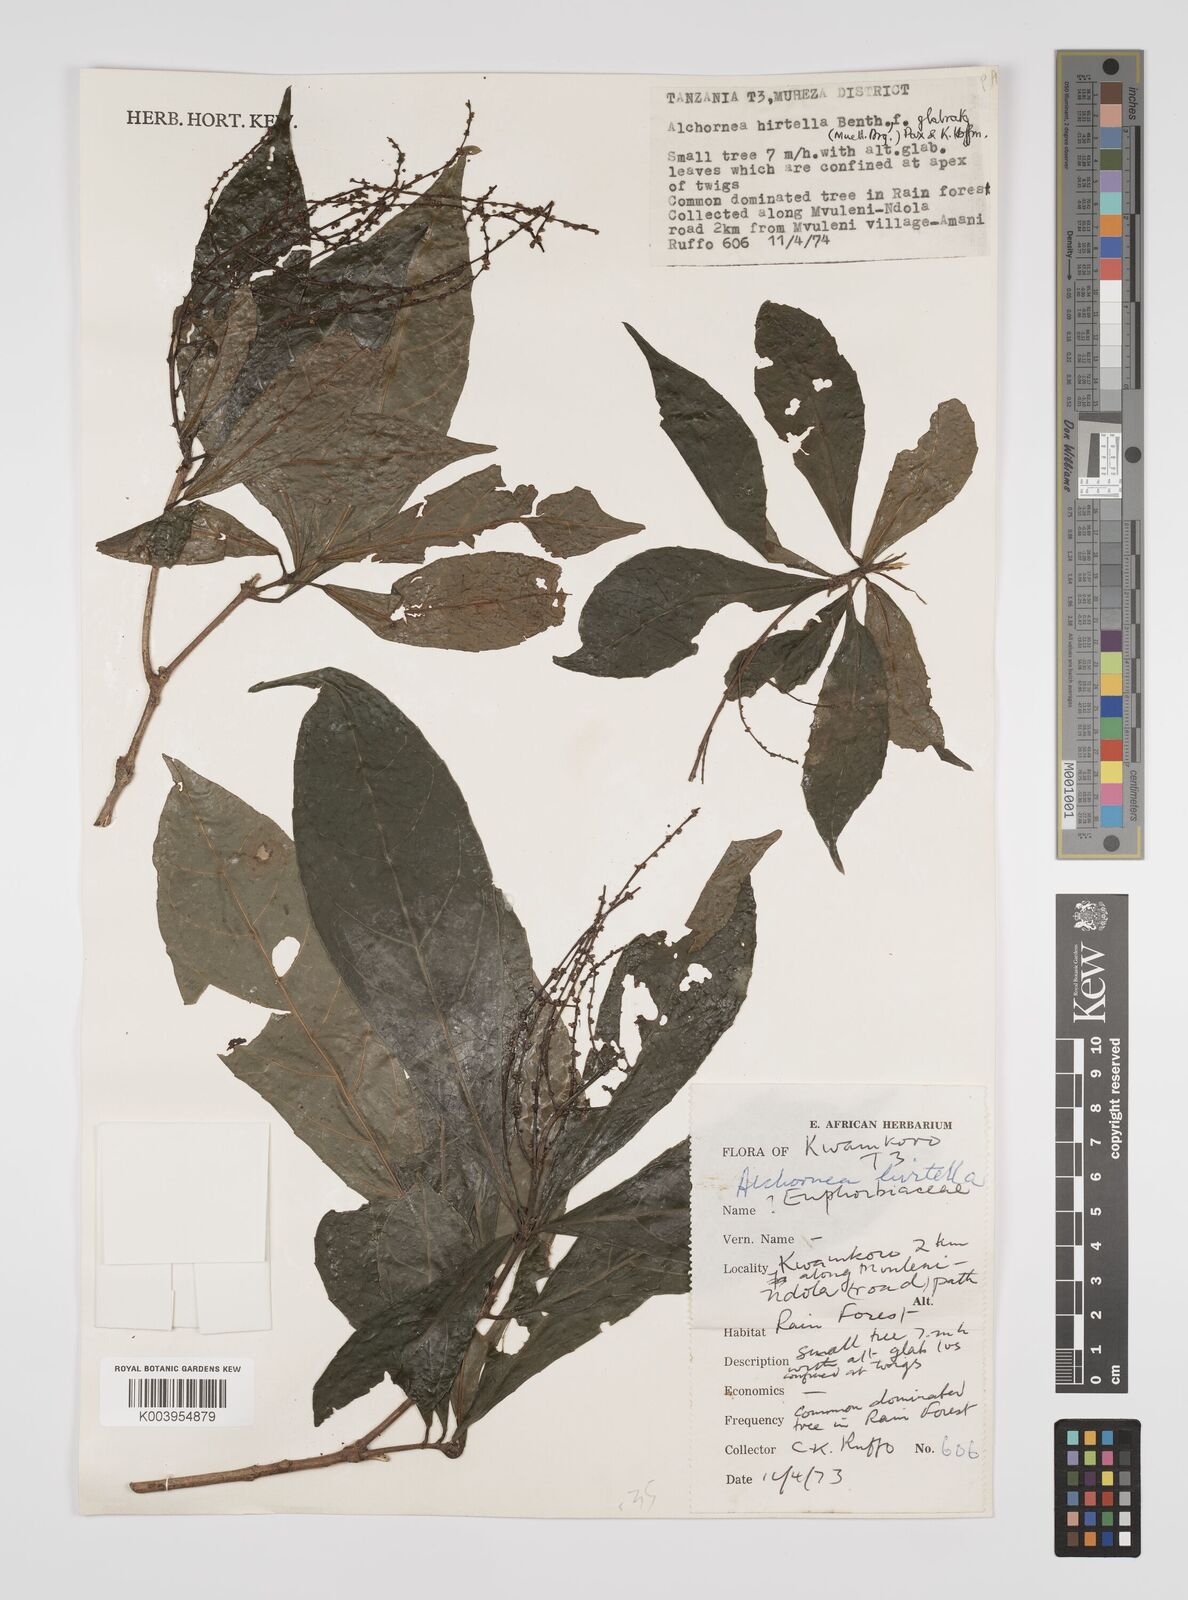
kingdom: Plantae
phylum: Tracheophyta
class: Magnoliopsida
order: Malpighiales
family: Euphorbiaceae
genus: Alchornea
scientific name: Alchornea hirtella
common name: Forest bead-string
